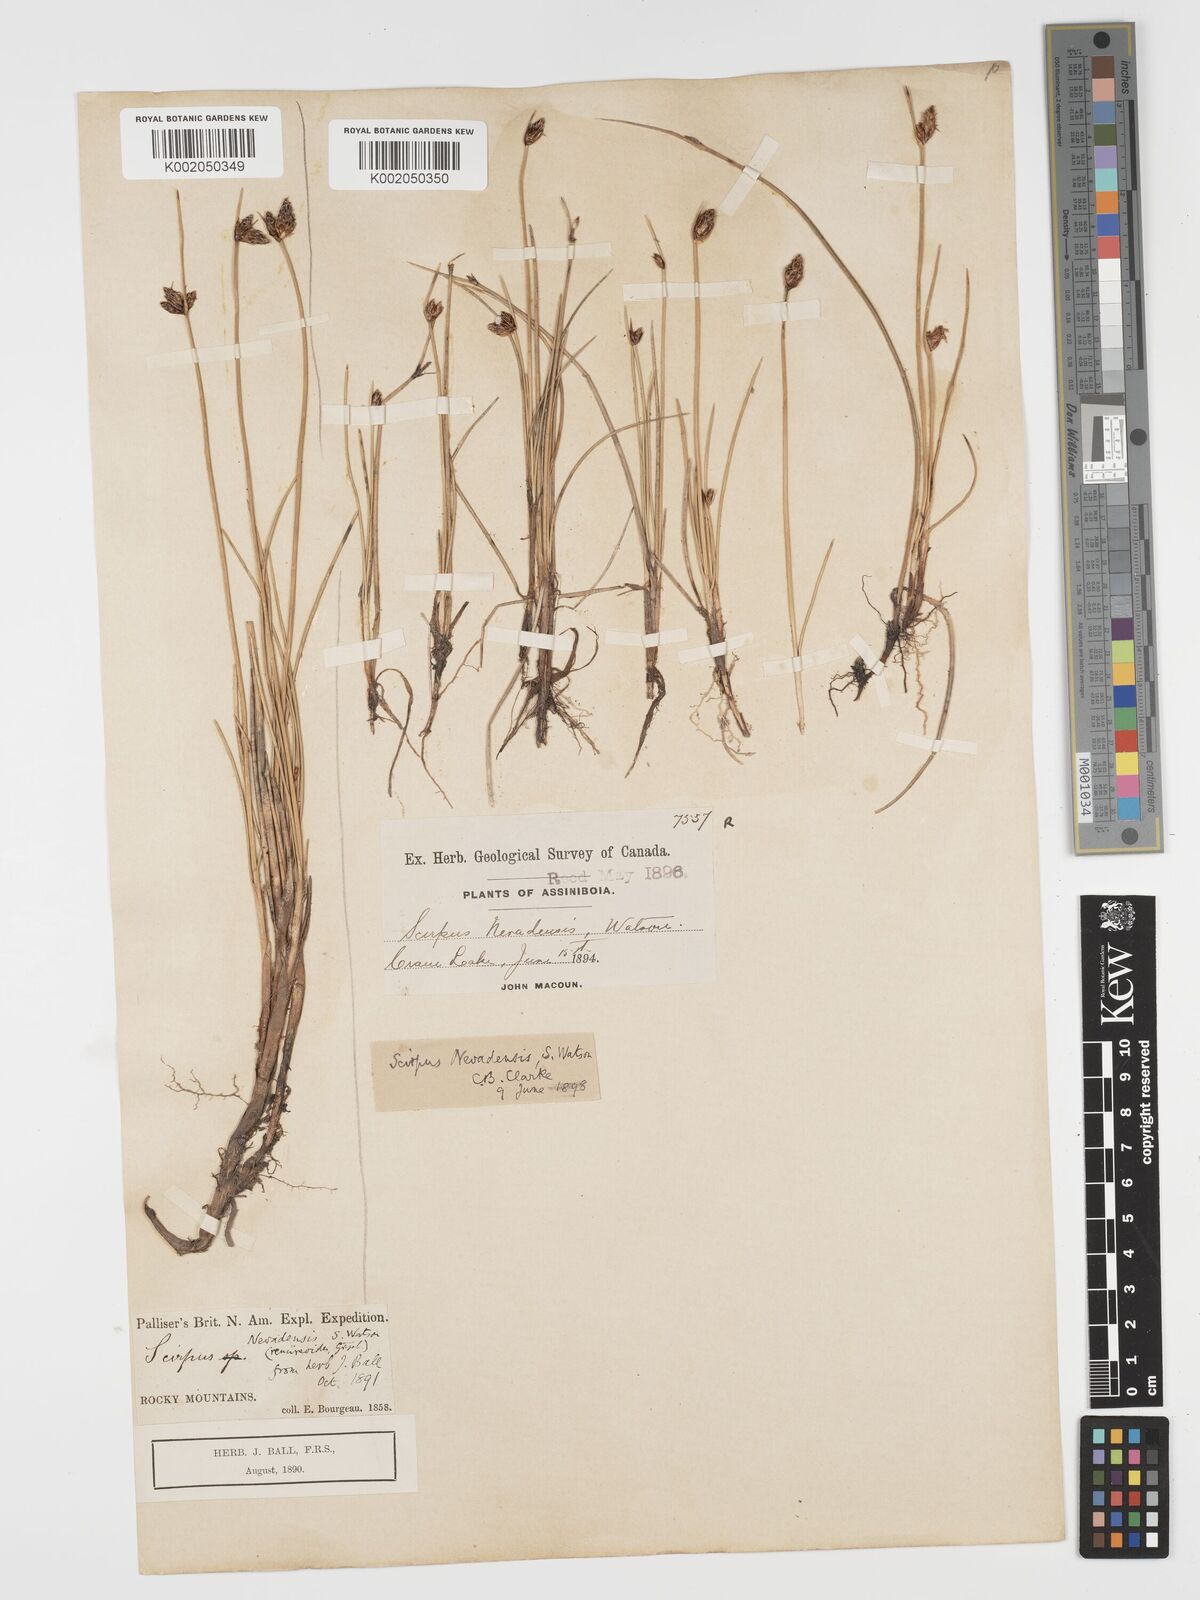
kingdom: Plantae
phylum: Tracheophyta
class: Liliopsida
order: Poales
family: Cyperaceae
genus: Amphiscirpus
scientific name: Amphiscirpus nevadensis
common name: Nevada bulrush
